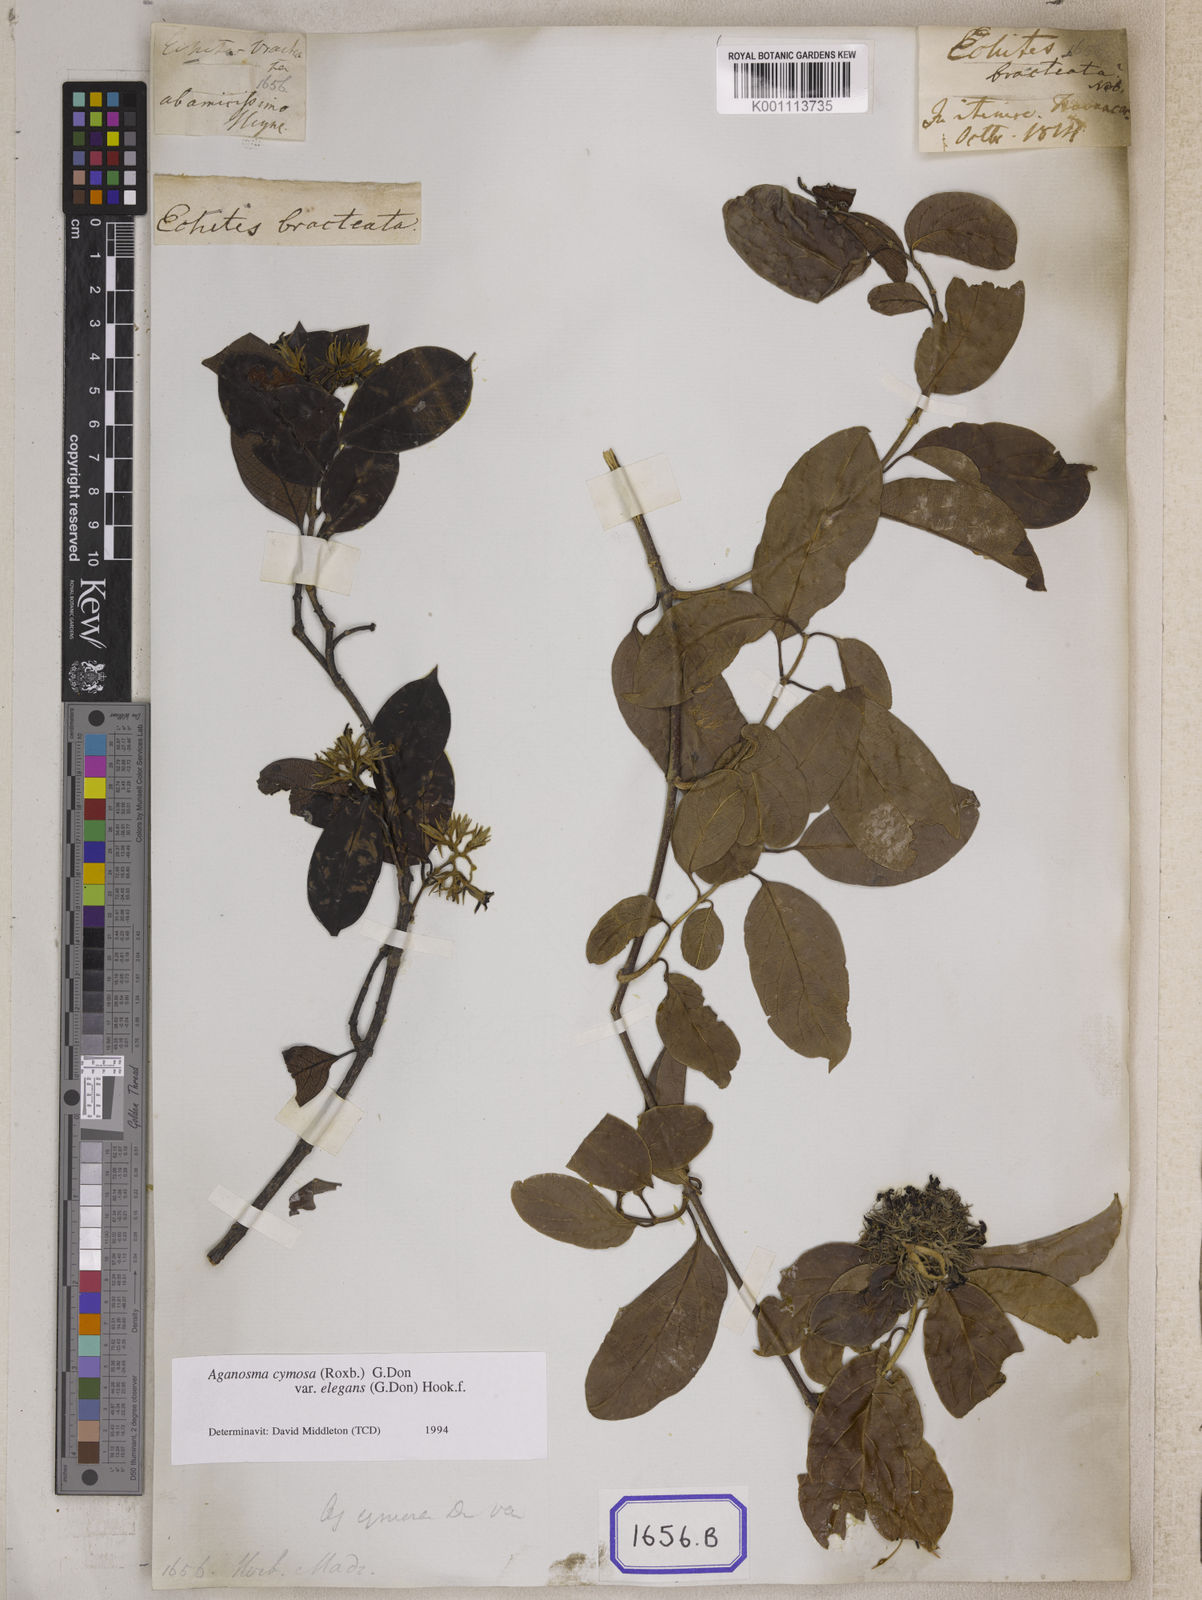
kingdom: Plantae
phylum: Tracheophyta
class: Magnoliopsida
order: Gentianales
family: Apocynaceae
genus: Chonemorpha
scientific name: Chonemorpha fragrans
